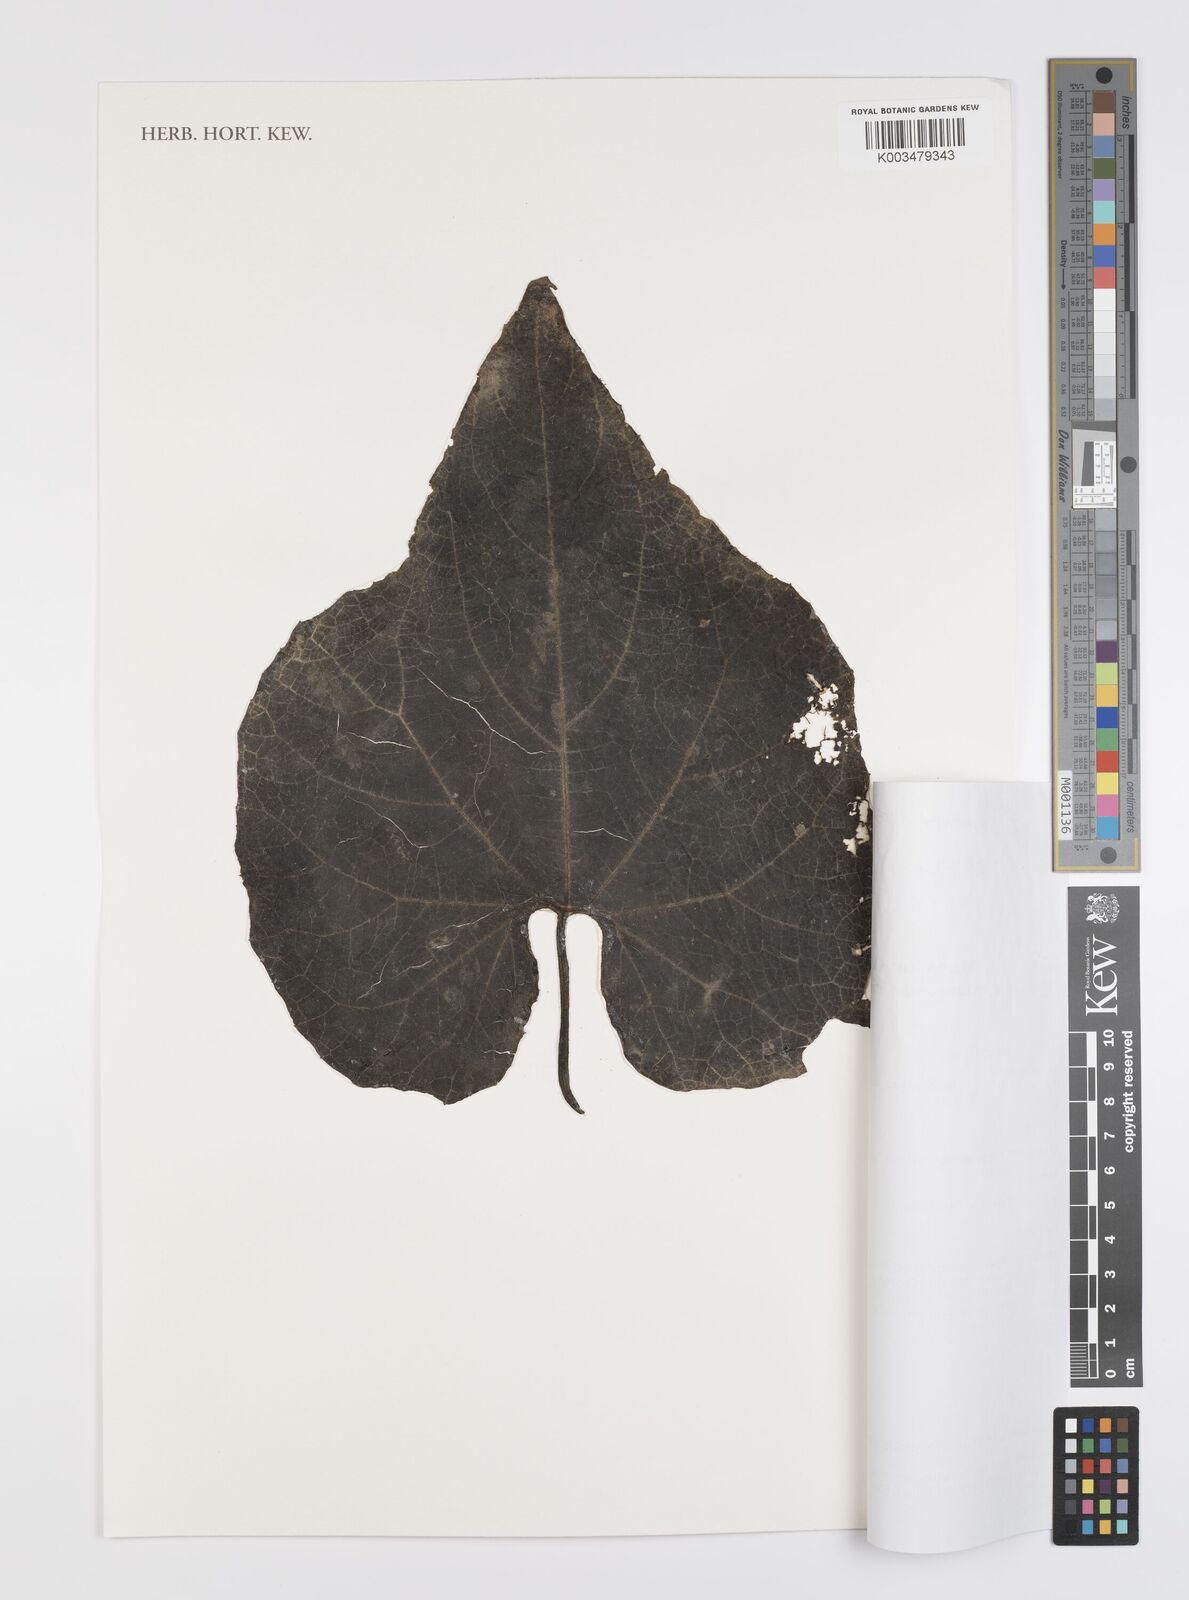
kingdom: Plantae
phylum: Tracheophyta
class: Magnoliopsida
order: Cucurbitales
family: Cucurbitaceae
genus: Trichosanthes
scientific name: Trichosanthes villosa
